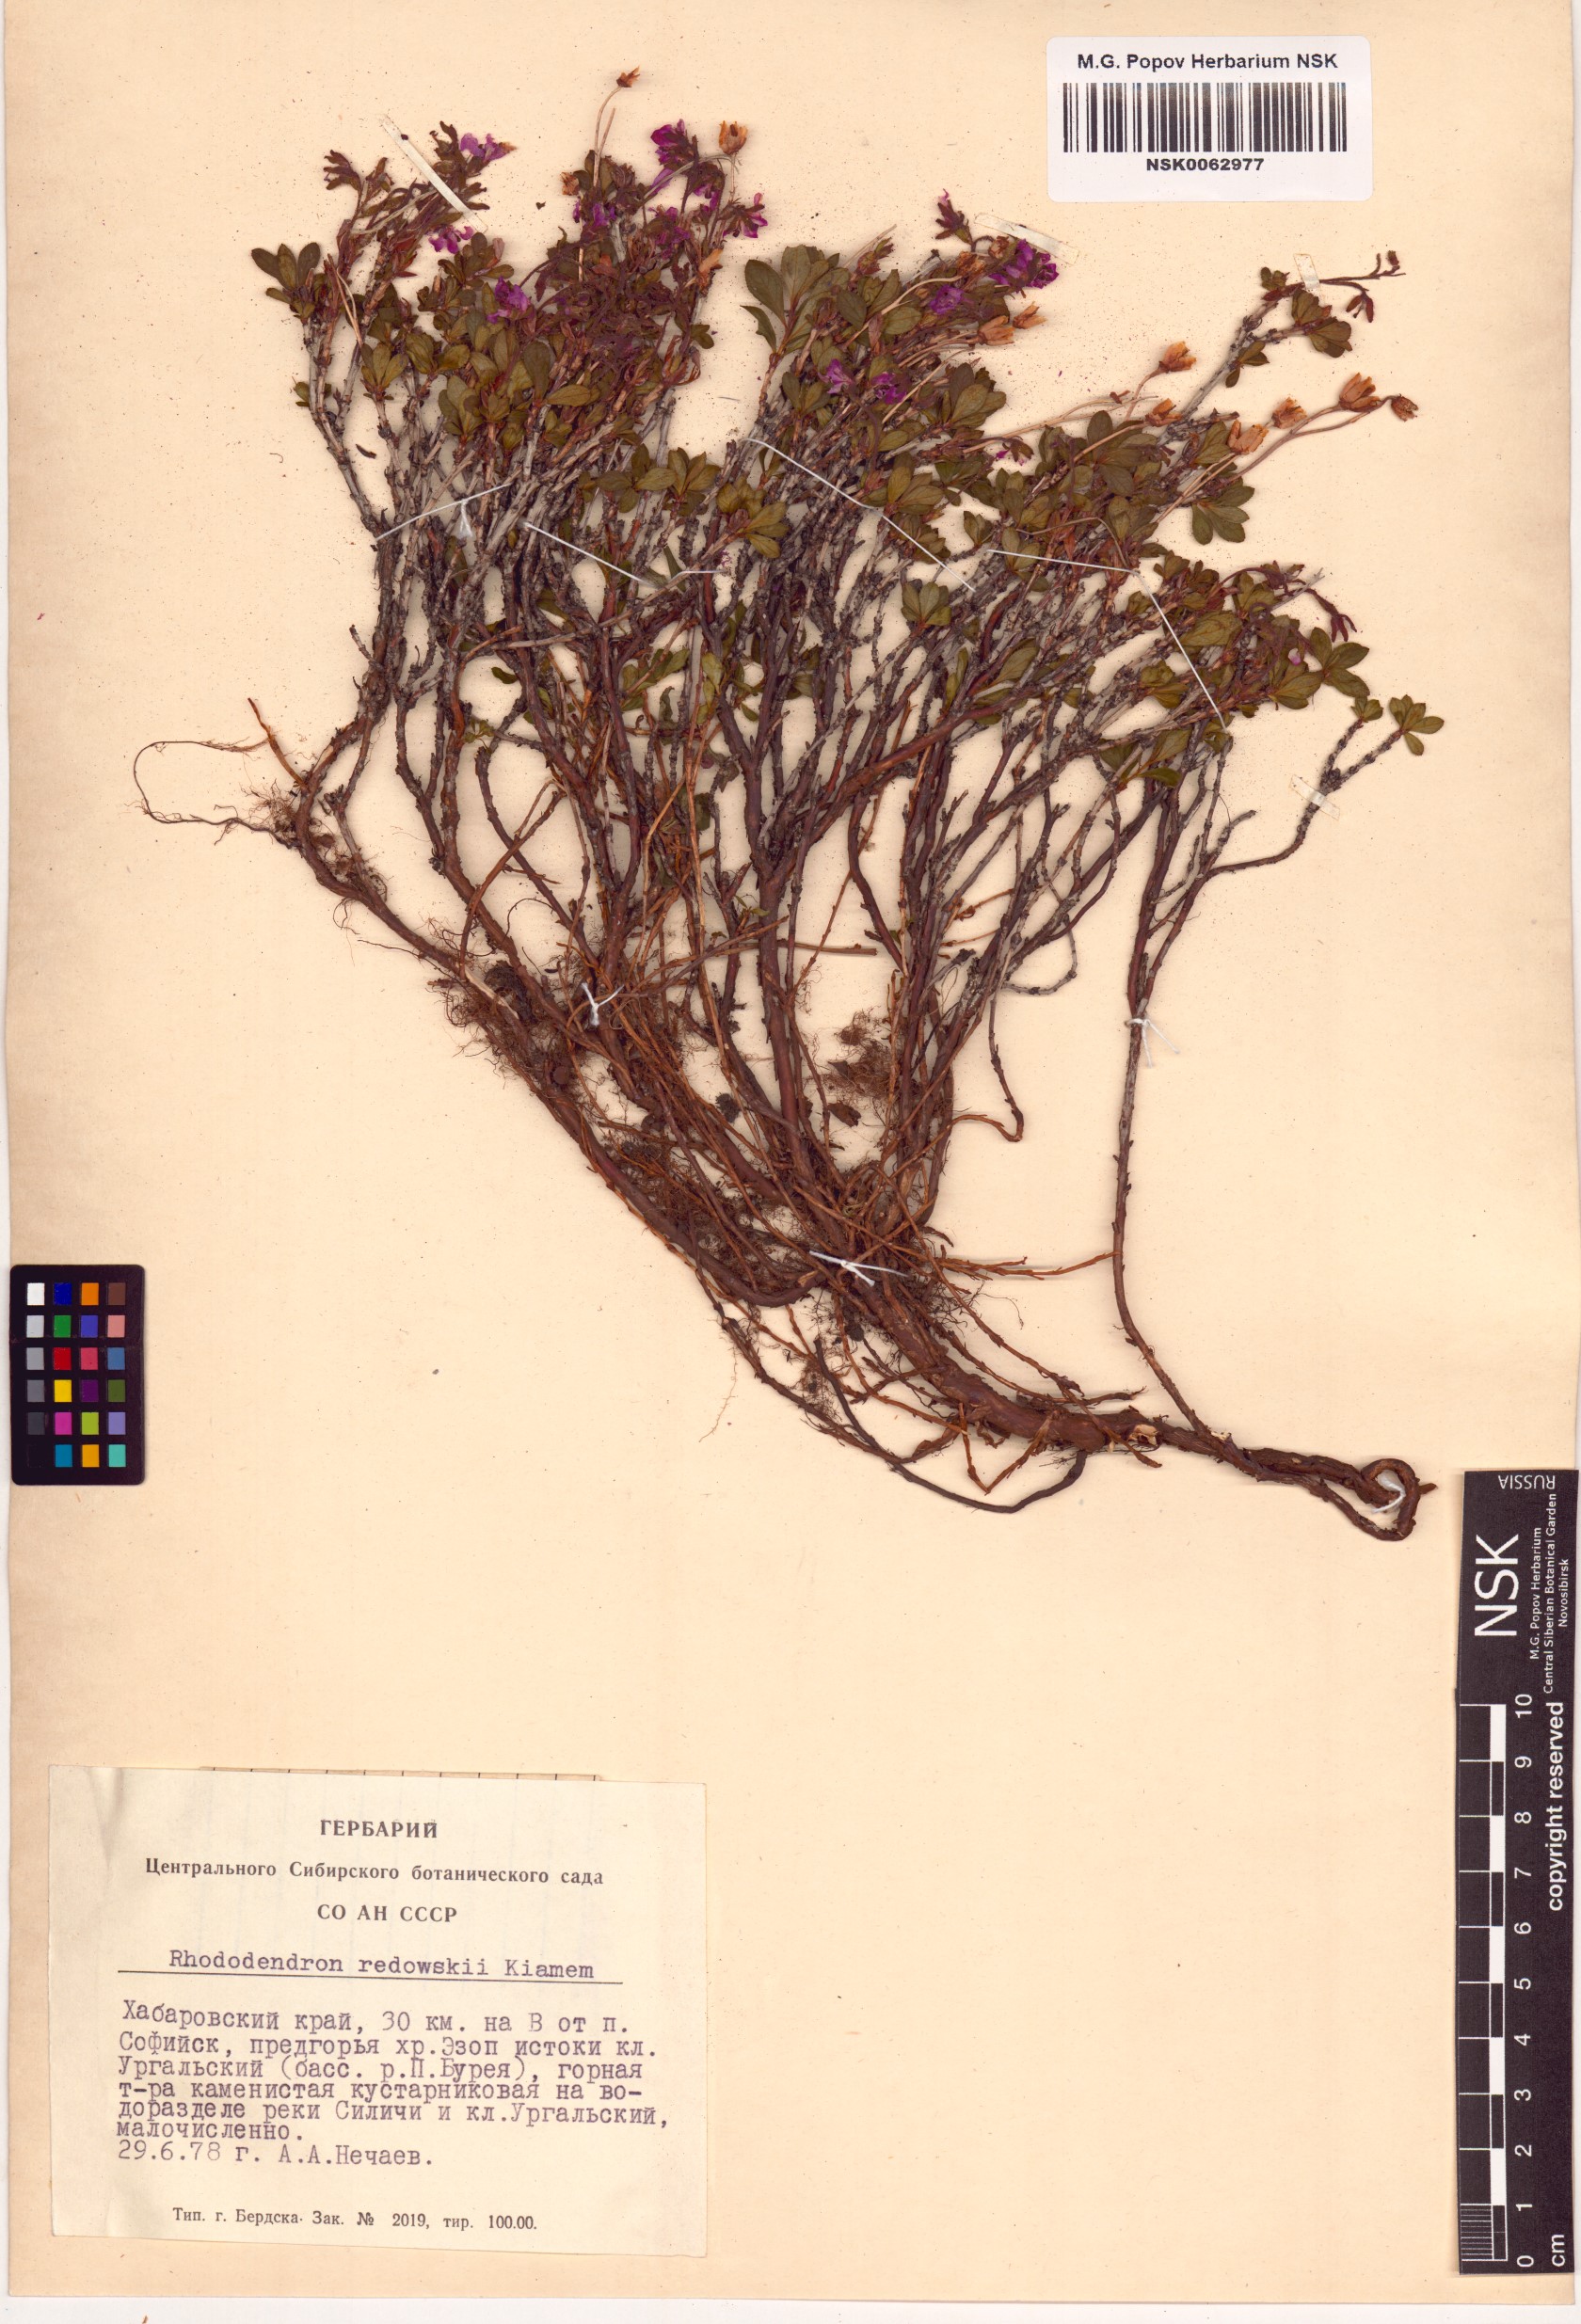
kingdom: Plantae
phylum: Tracheophyta
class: Magnoliopsida
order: Ericales
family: Ericaceae
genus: Rhododendron
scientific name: Rhododendron redowskianum
